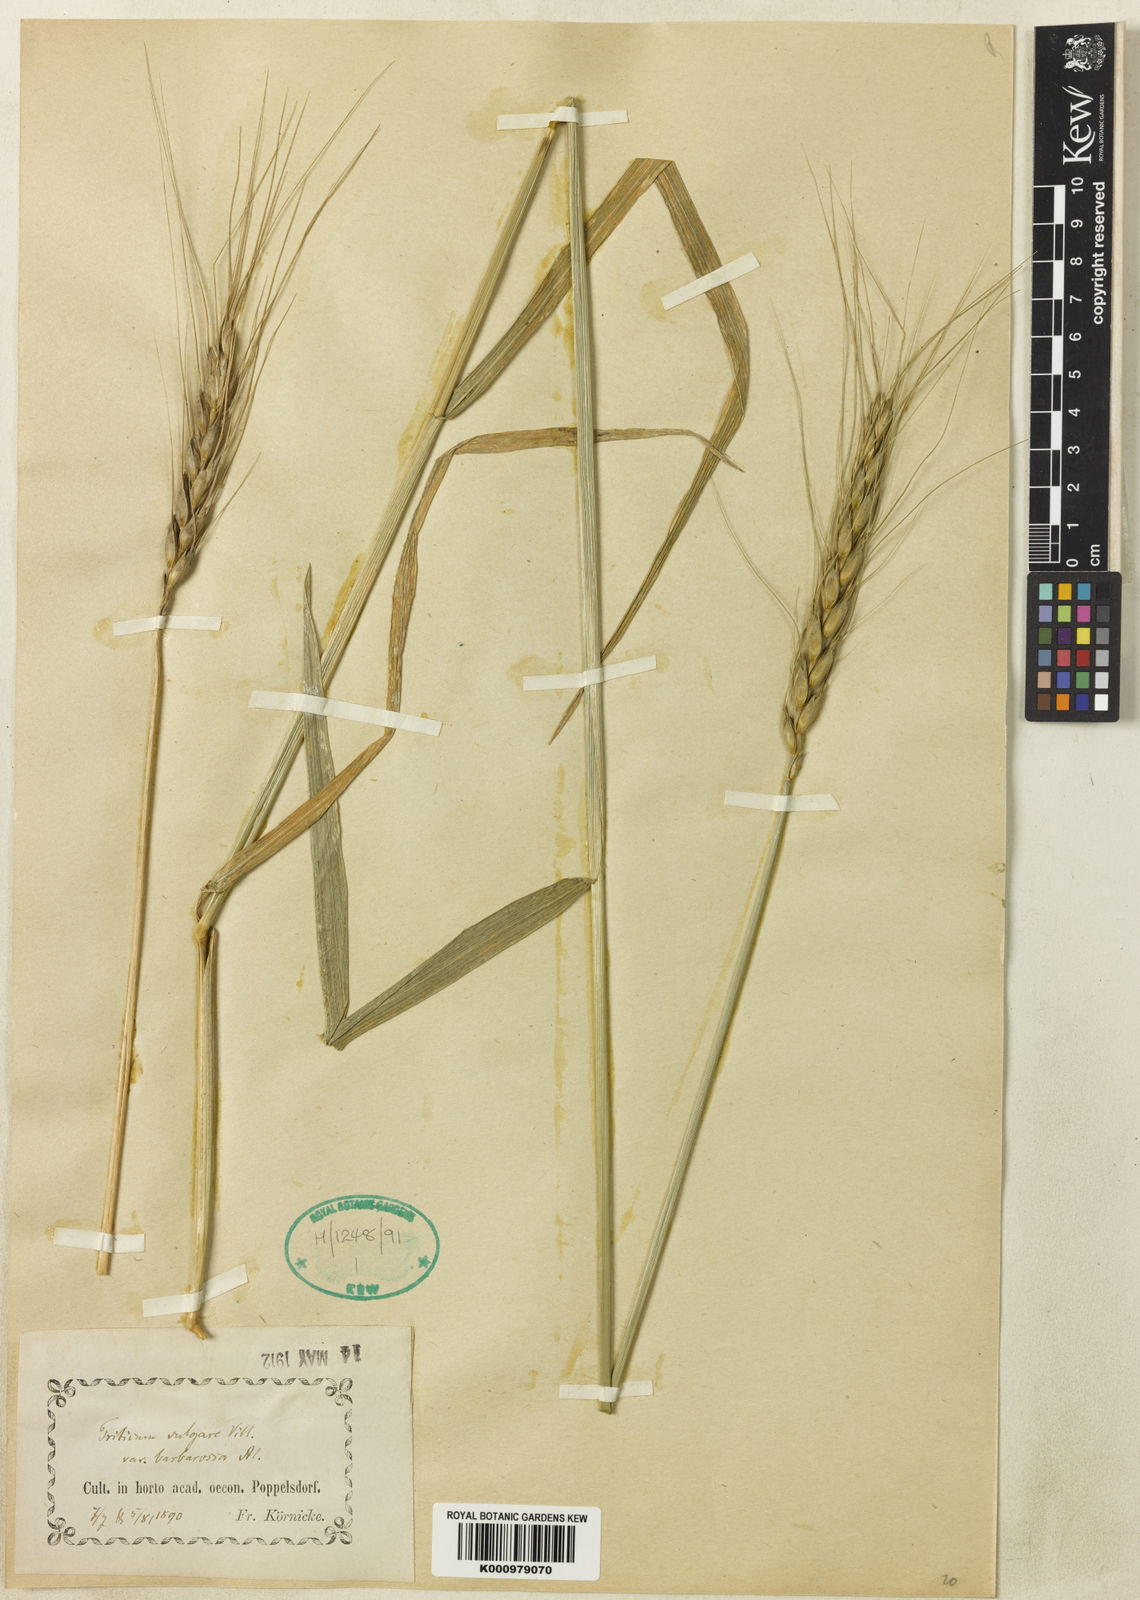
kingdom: Plantae
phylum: Tracheophyta
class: Liliopsida
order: Poales
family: Poaceae
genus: Triticum
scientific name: Triticum aestivum
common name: Common wheat
